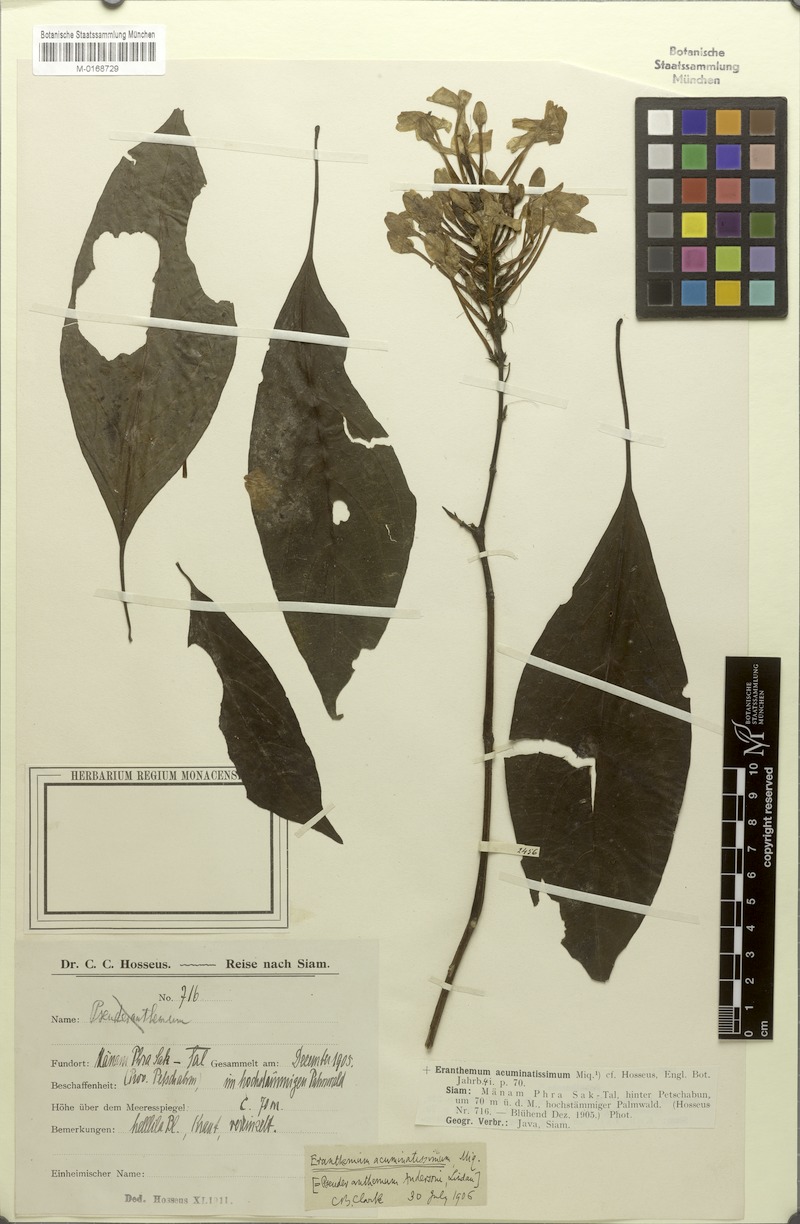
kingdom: Plantae
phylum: Tracheophyta
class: Magnoliopsida
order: Lamiales
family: Acanthaceae
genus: Pseuderanthemum
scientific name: Pseuderanthemum acuminatissimum
